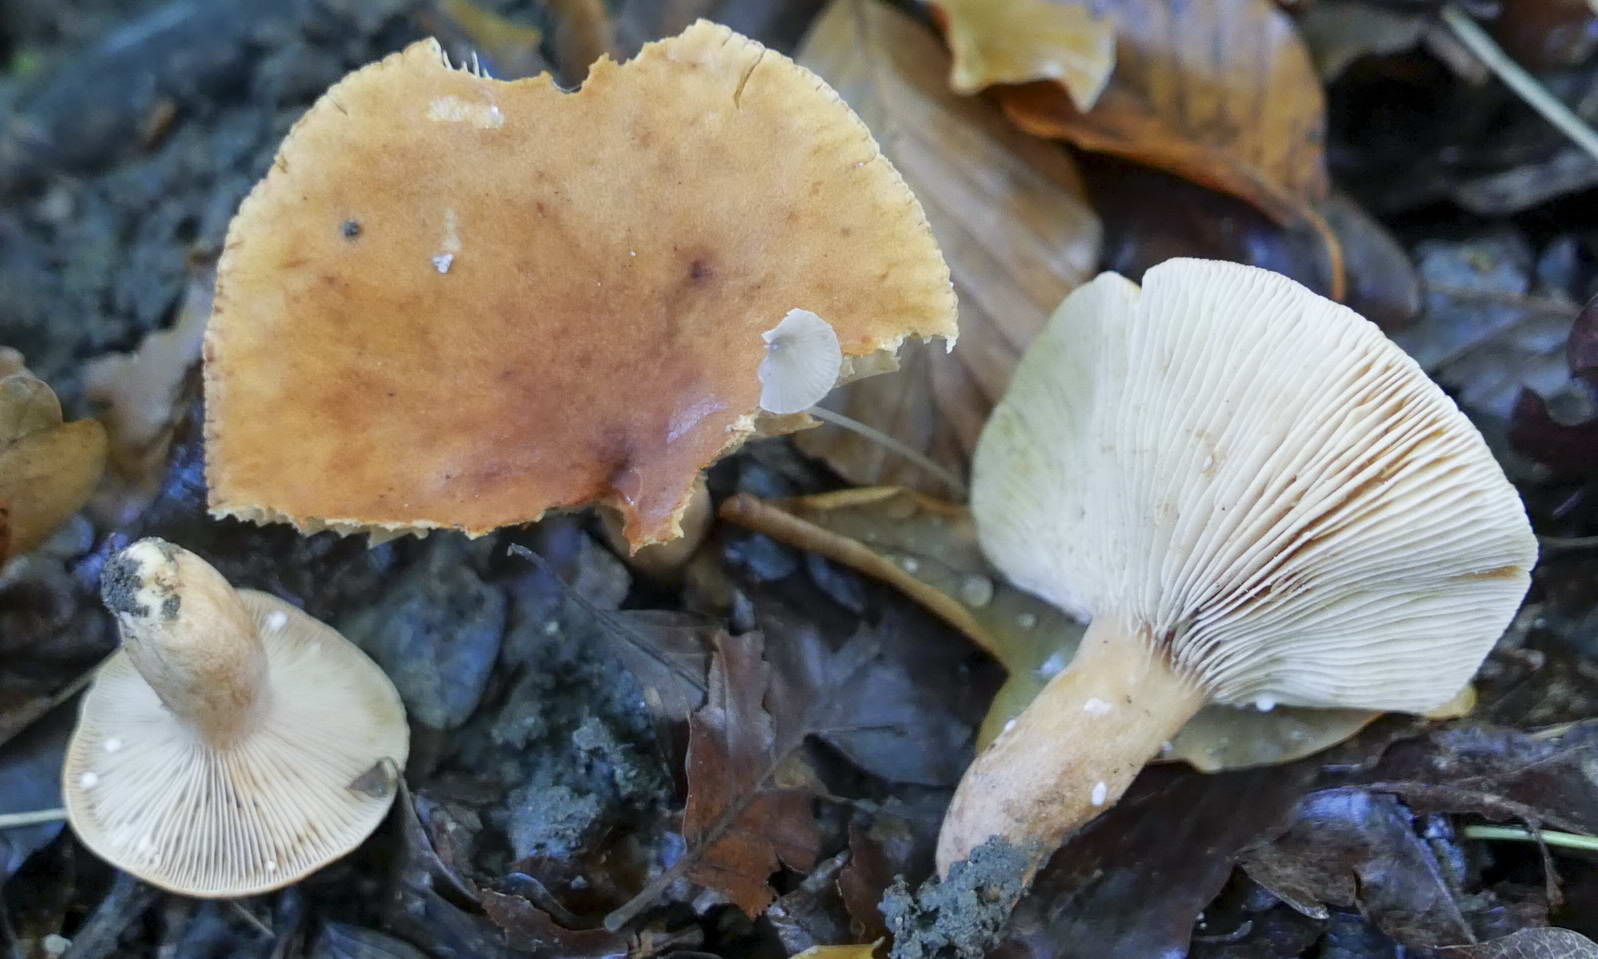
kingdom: Fungi
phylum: Basidiomycota
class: Agaricomycetes
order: Russulales
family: Russulaceae
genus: Lactarius
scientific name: Lactarius fulvissimus
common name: ræve-mælkehat
